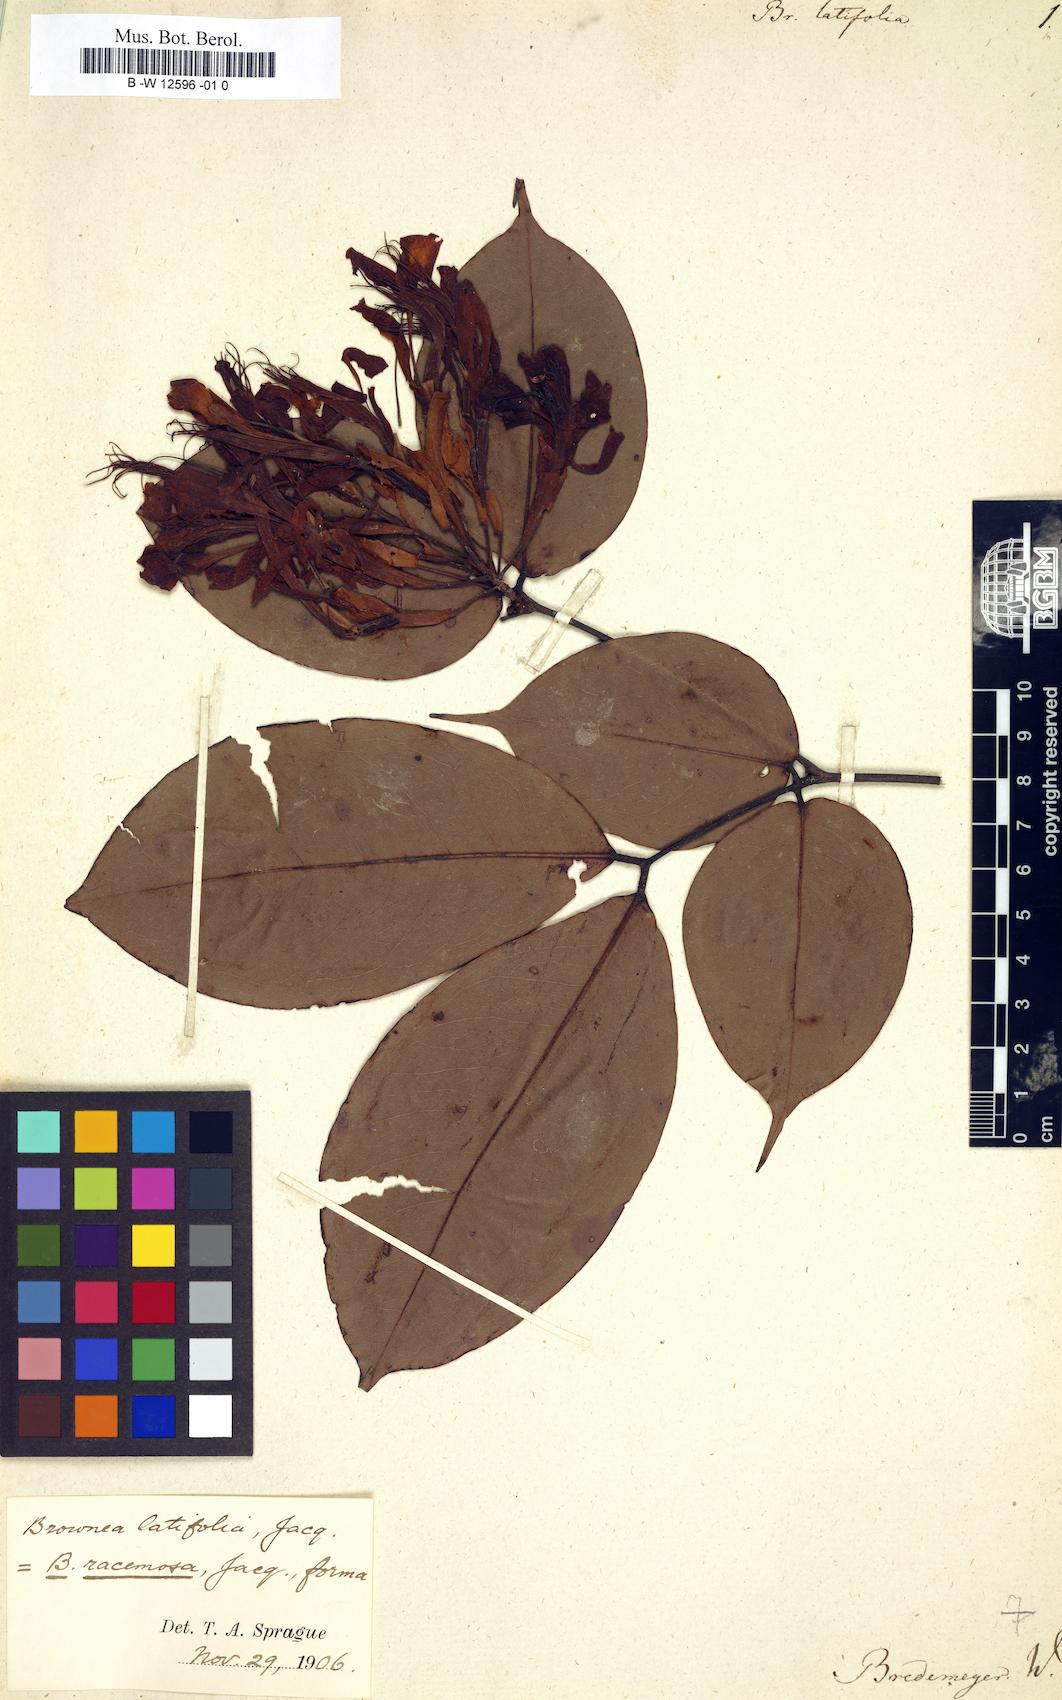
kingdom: Plantae
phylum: Tracheophyta
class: Magnoliopsida
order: Fabales
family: Fabaceae
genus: Brownea
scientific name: Brownea coccinea
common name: Scarlet flame-bean
